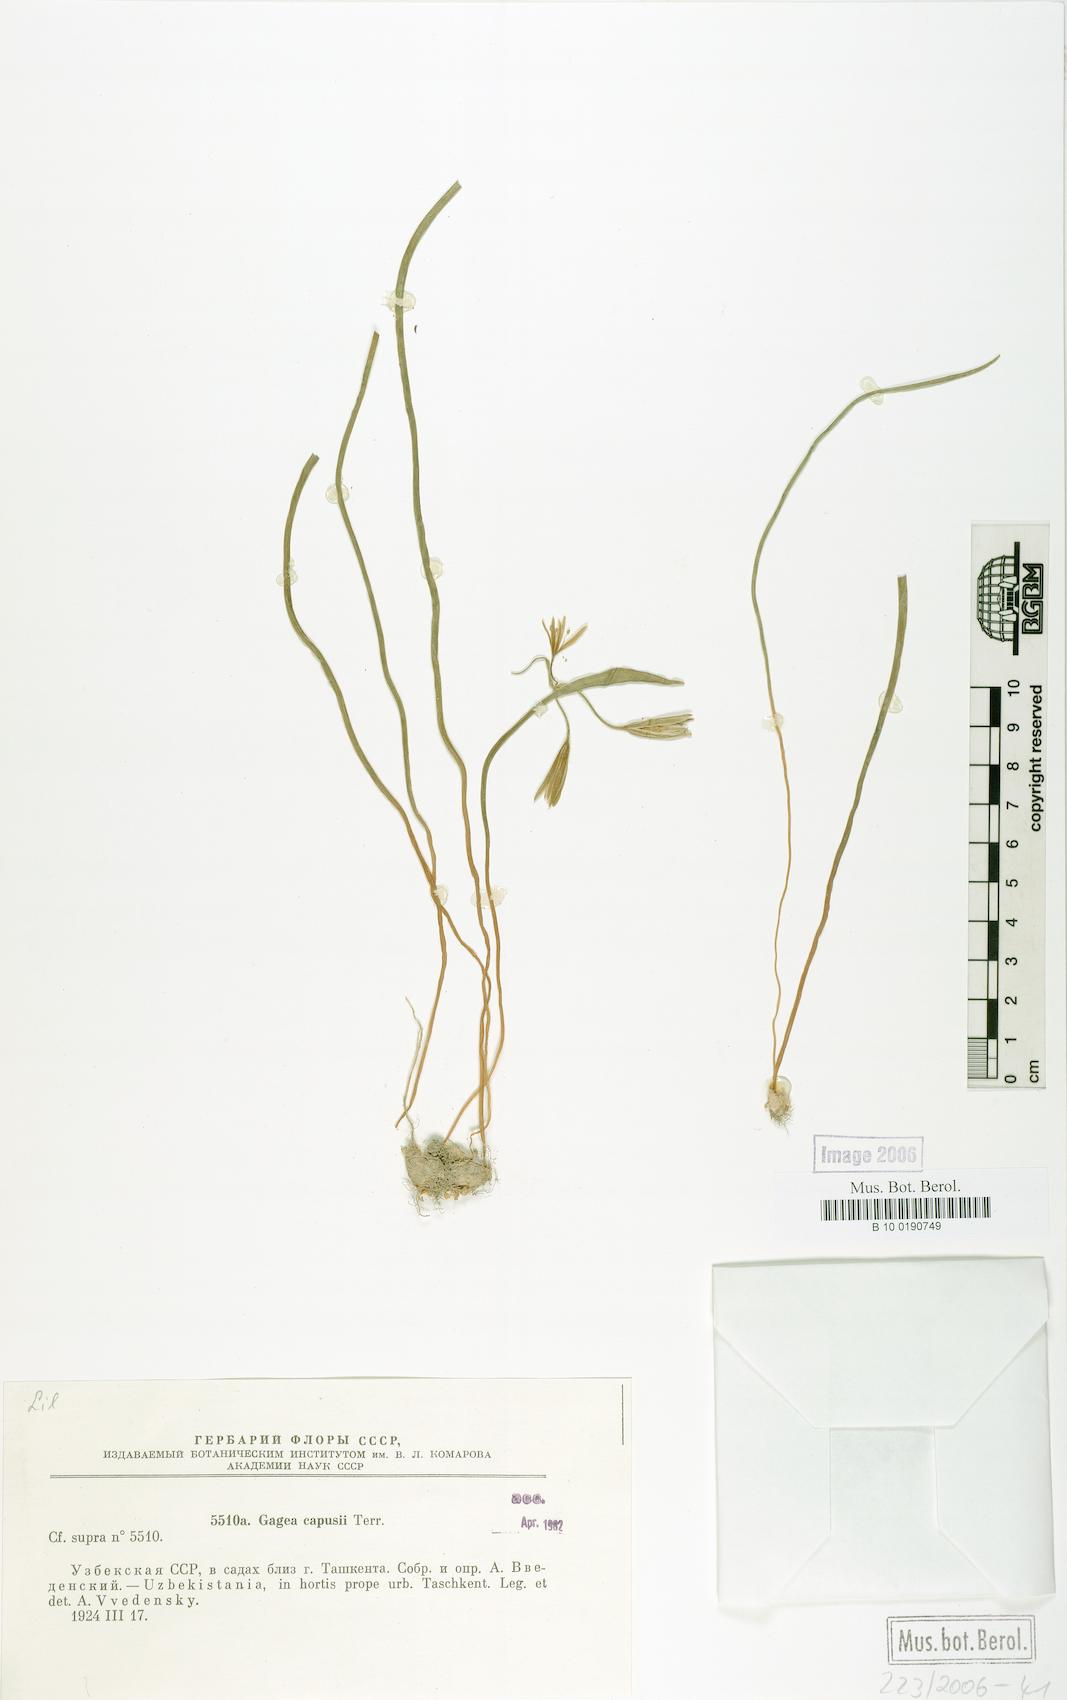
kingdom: Plantae
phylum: Tracheophyta
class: Liliopsida
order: Liliales
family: Liliaceae
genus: Gagea
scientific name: Gagea capusii
